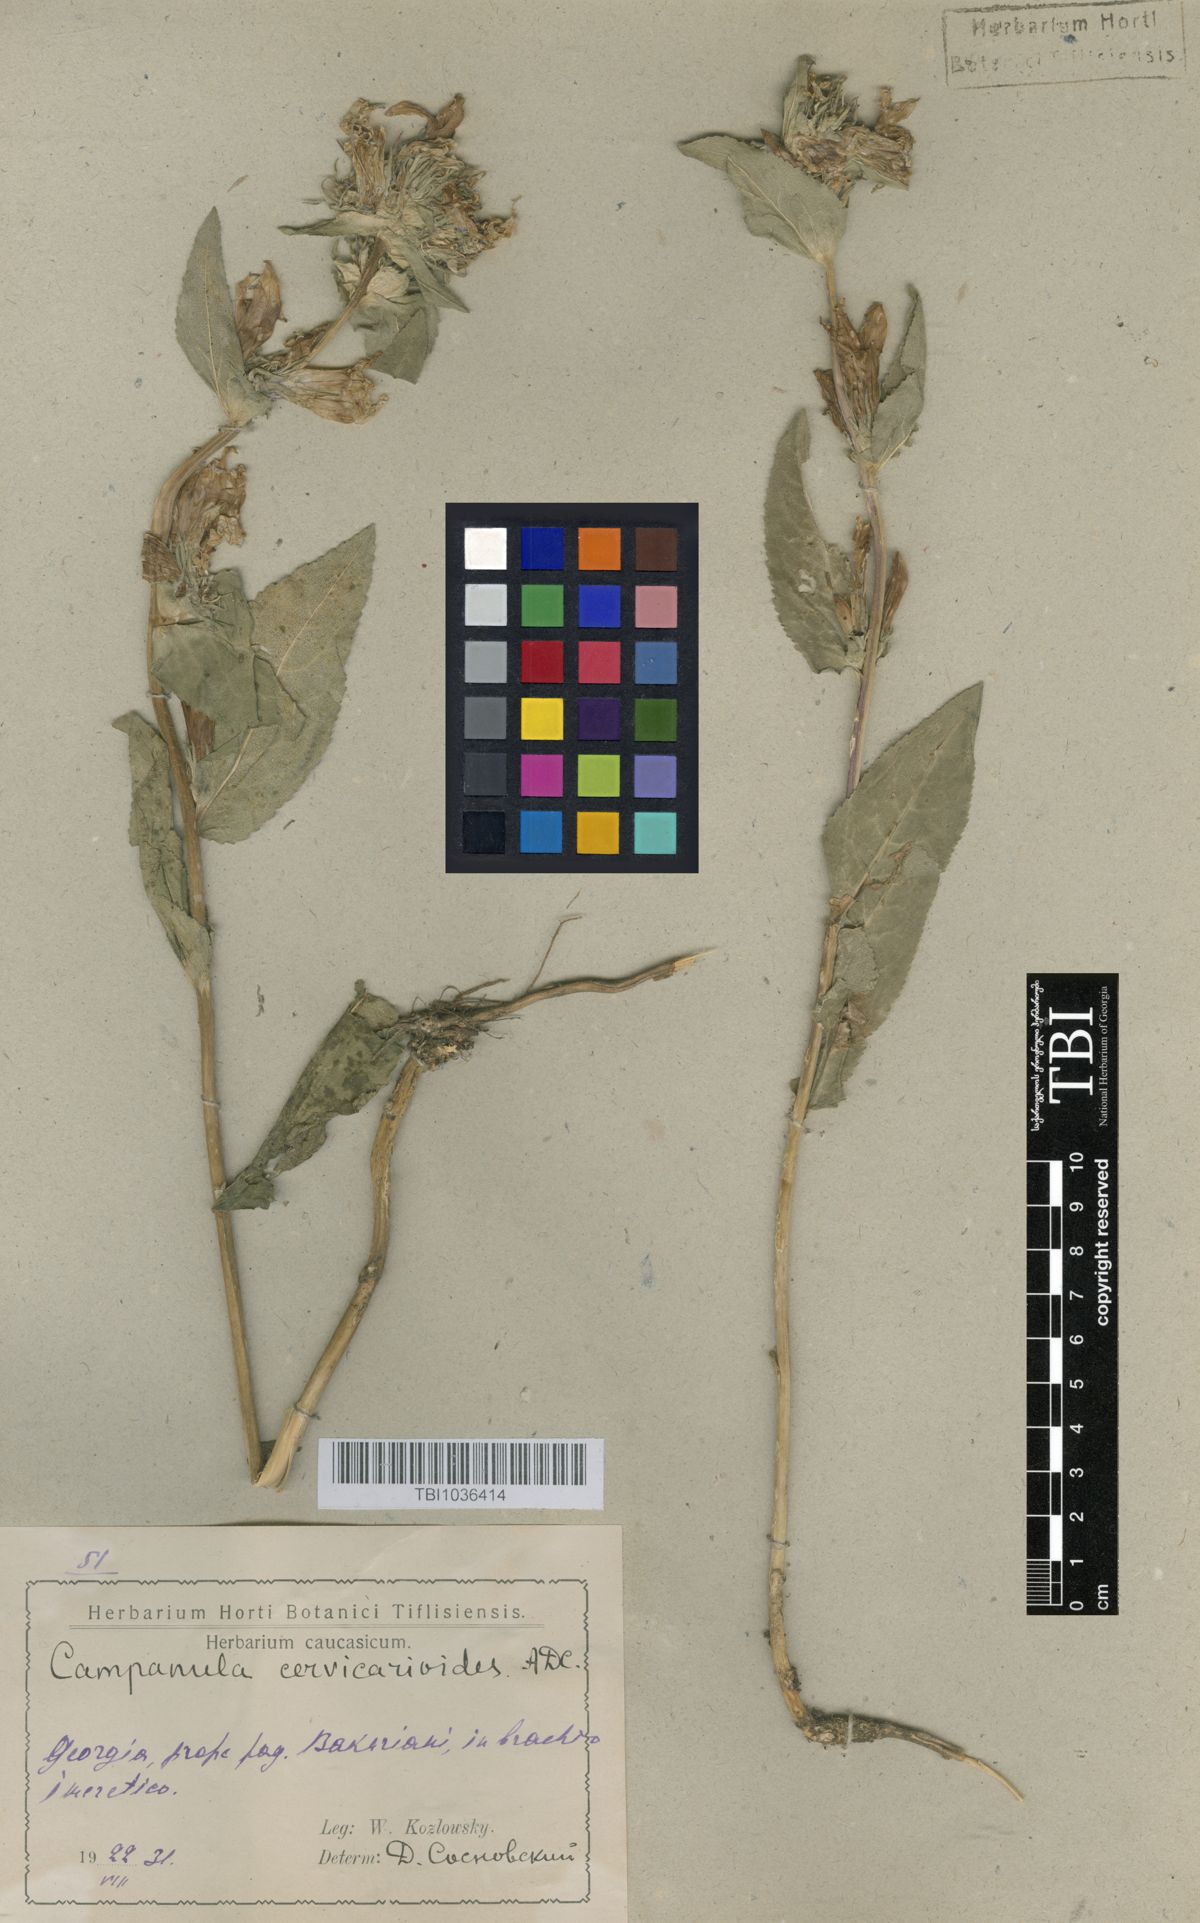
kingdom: Plantae
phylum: Tracheophyta
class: Magnoliopsida
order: Asterales
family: Campanulaceae
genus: Campanula
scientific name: Campanula glomerata
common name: Clustered bellflower
